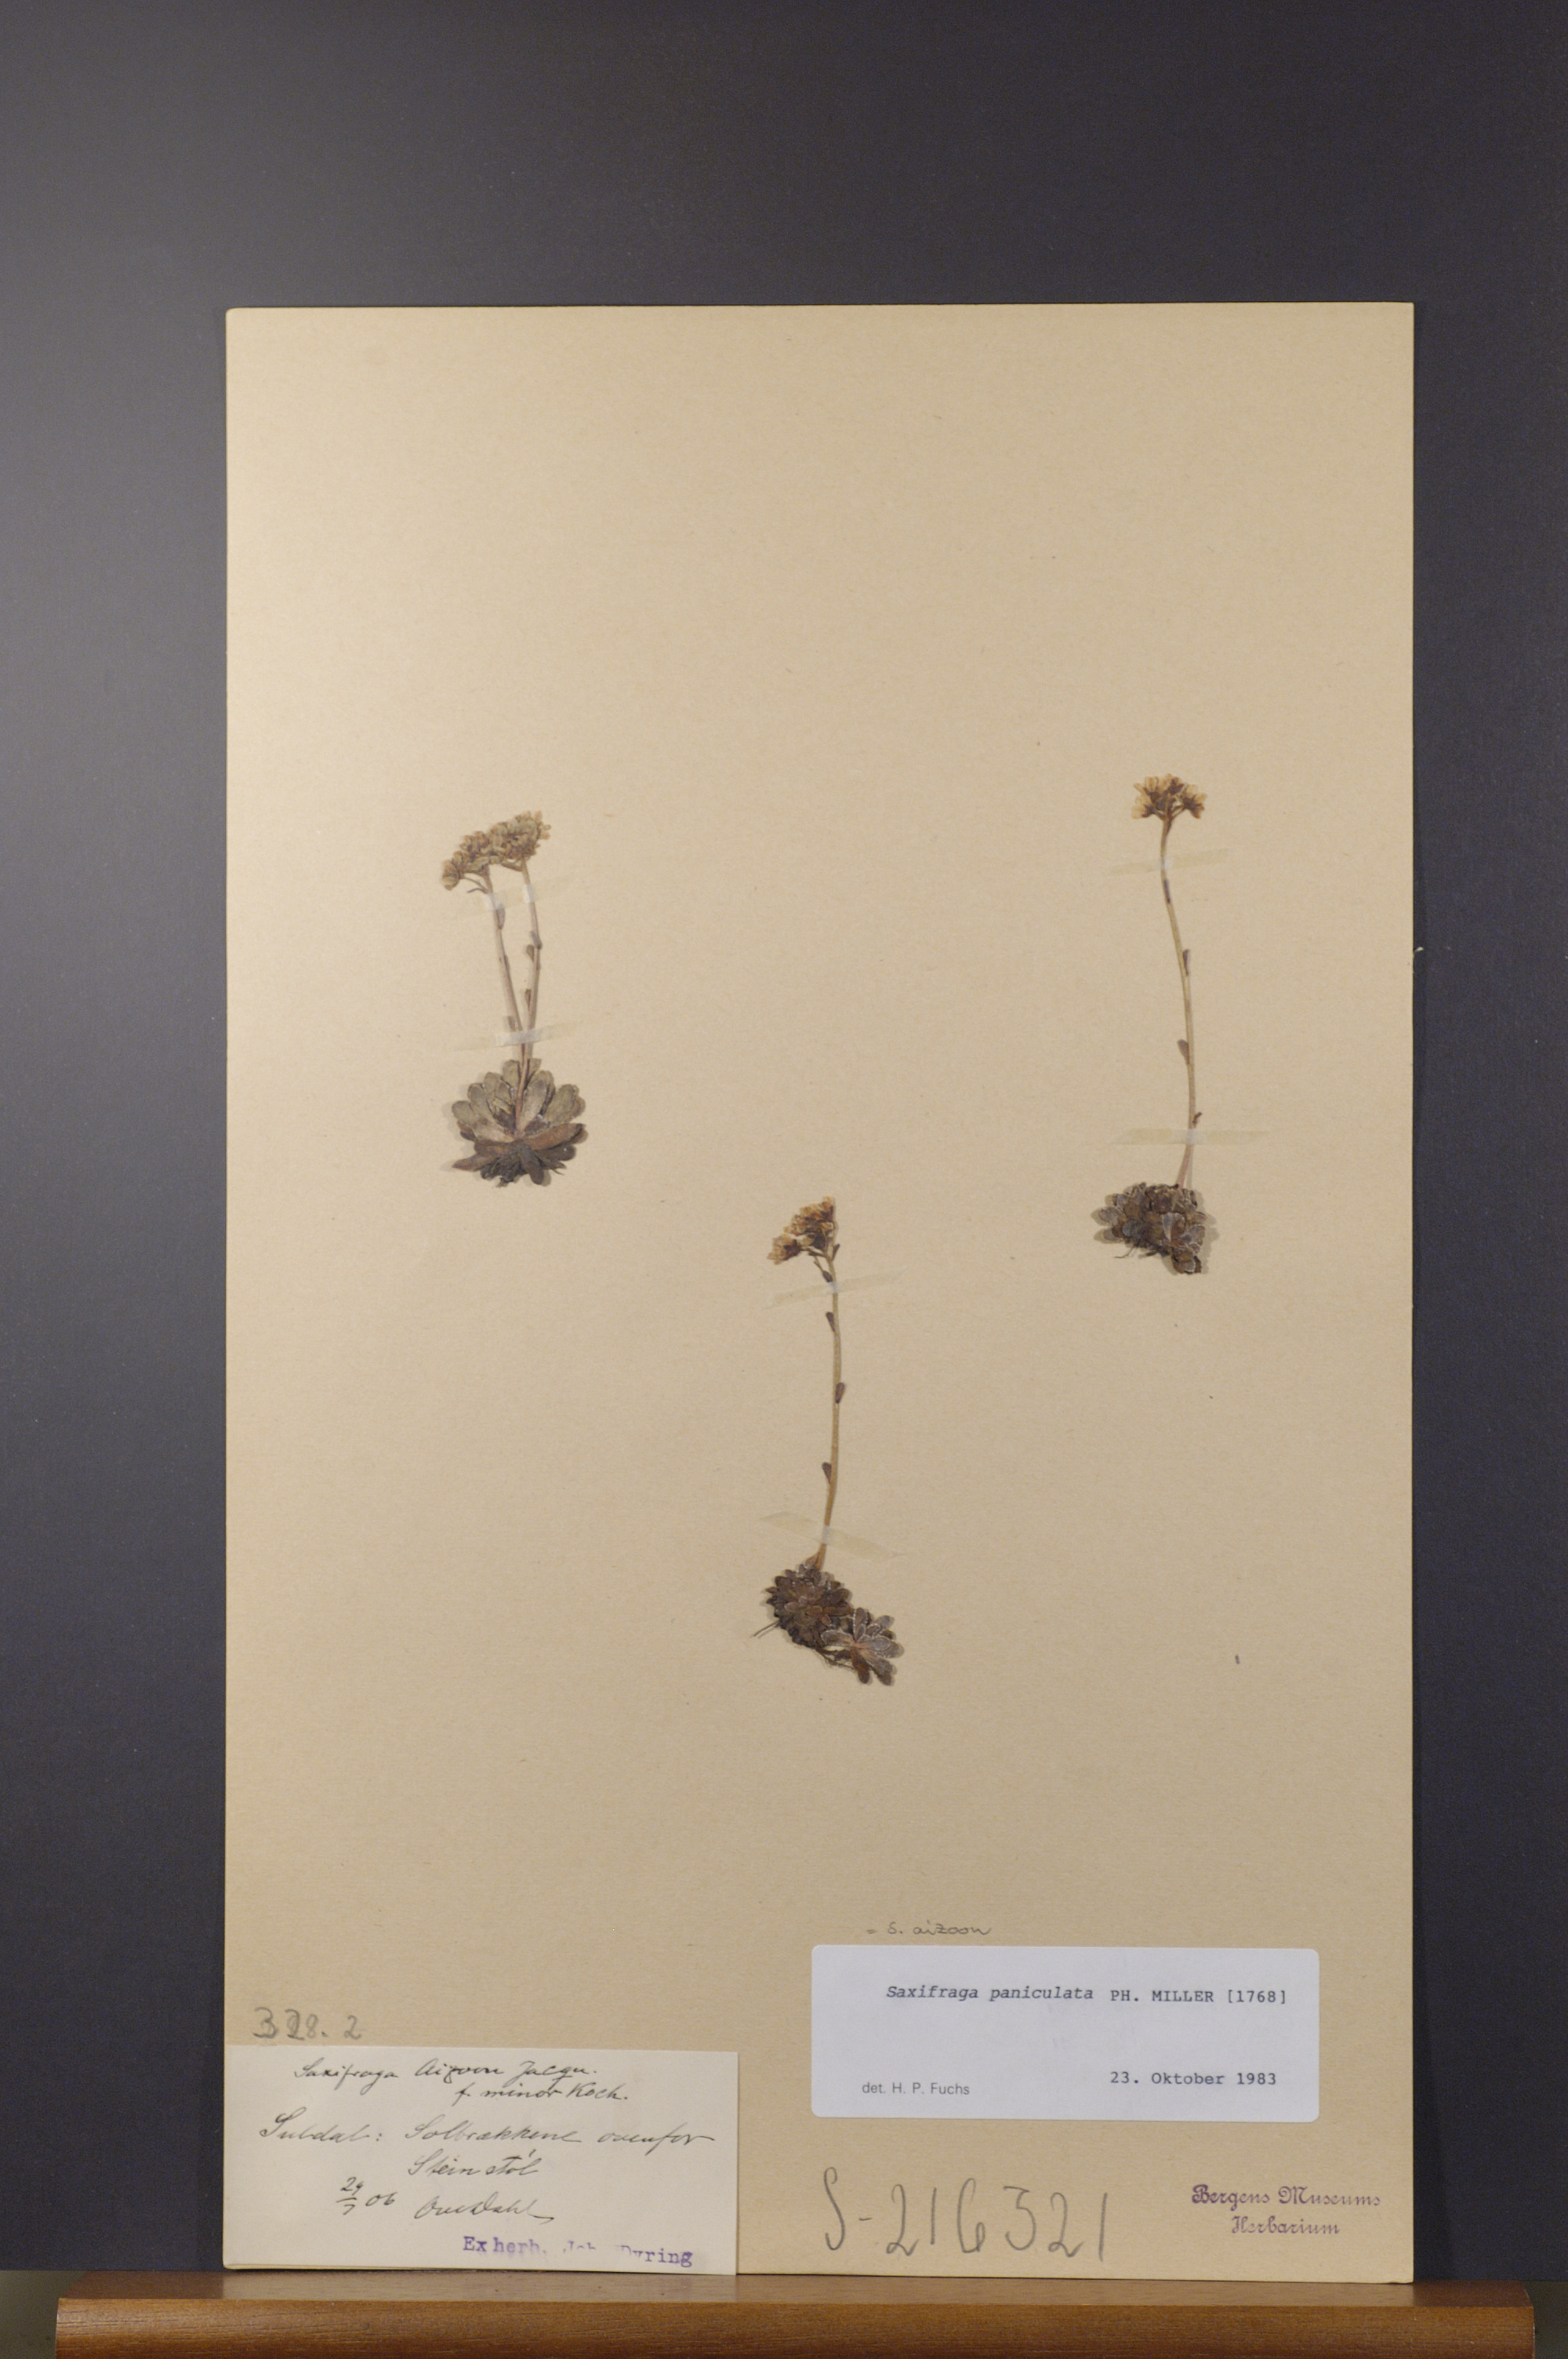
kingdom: Plantae
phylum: Tracheophyta
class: Magnoliopsida
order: Saxifragales
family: Saxifragaceae
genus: Saxifraga
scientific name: Saxifraga paniculata
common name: Livelong saxifrage
